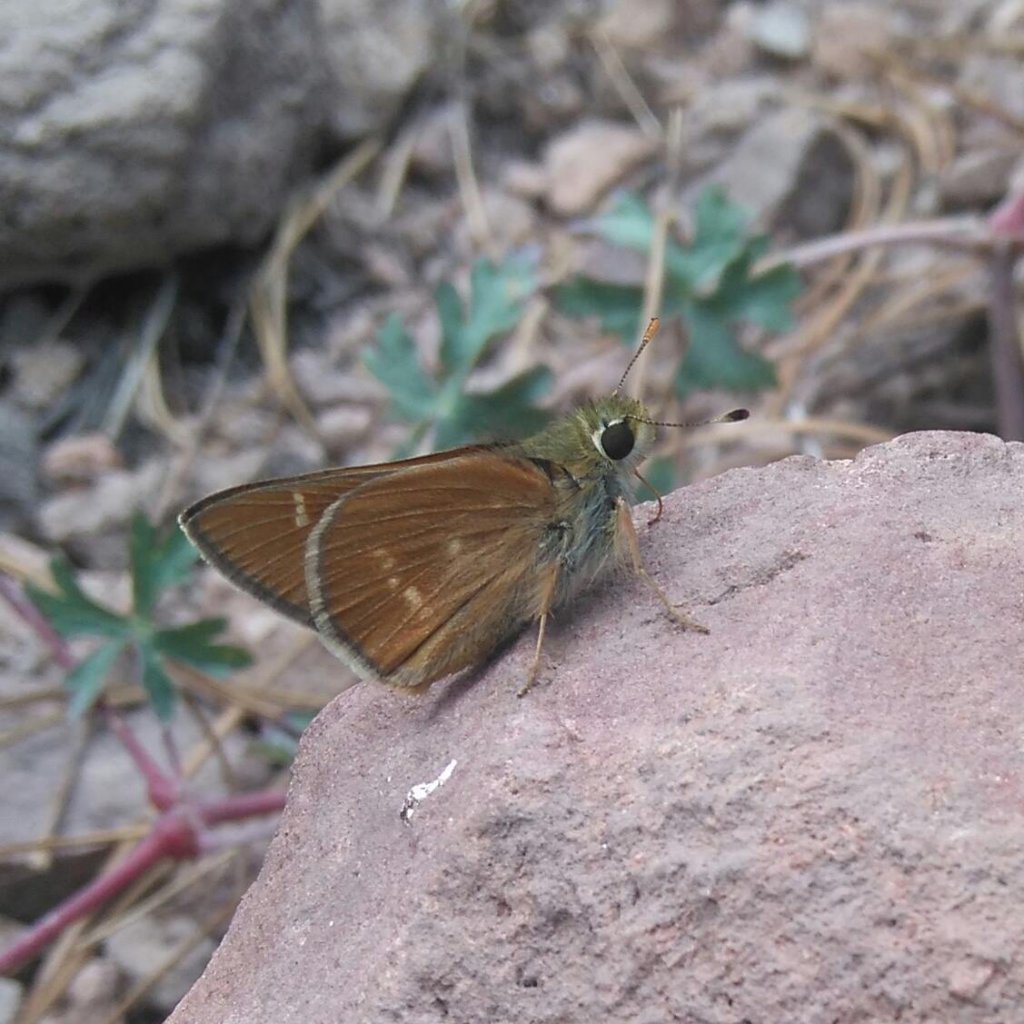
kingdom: Animalia
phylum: Arthropoda
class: Insecta
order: Lepidoptera
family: Hesperiidae
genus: Ochlodes
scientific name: Ochlodes snowi
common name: Snow's Skipper
